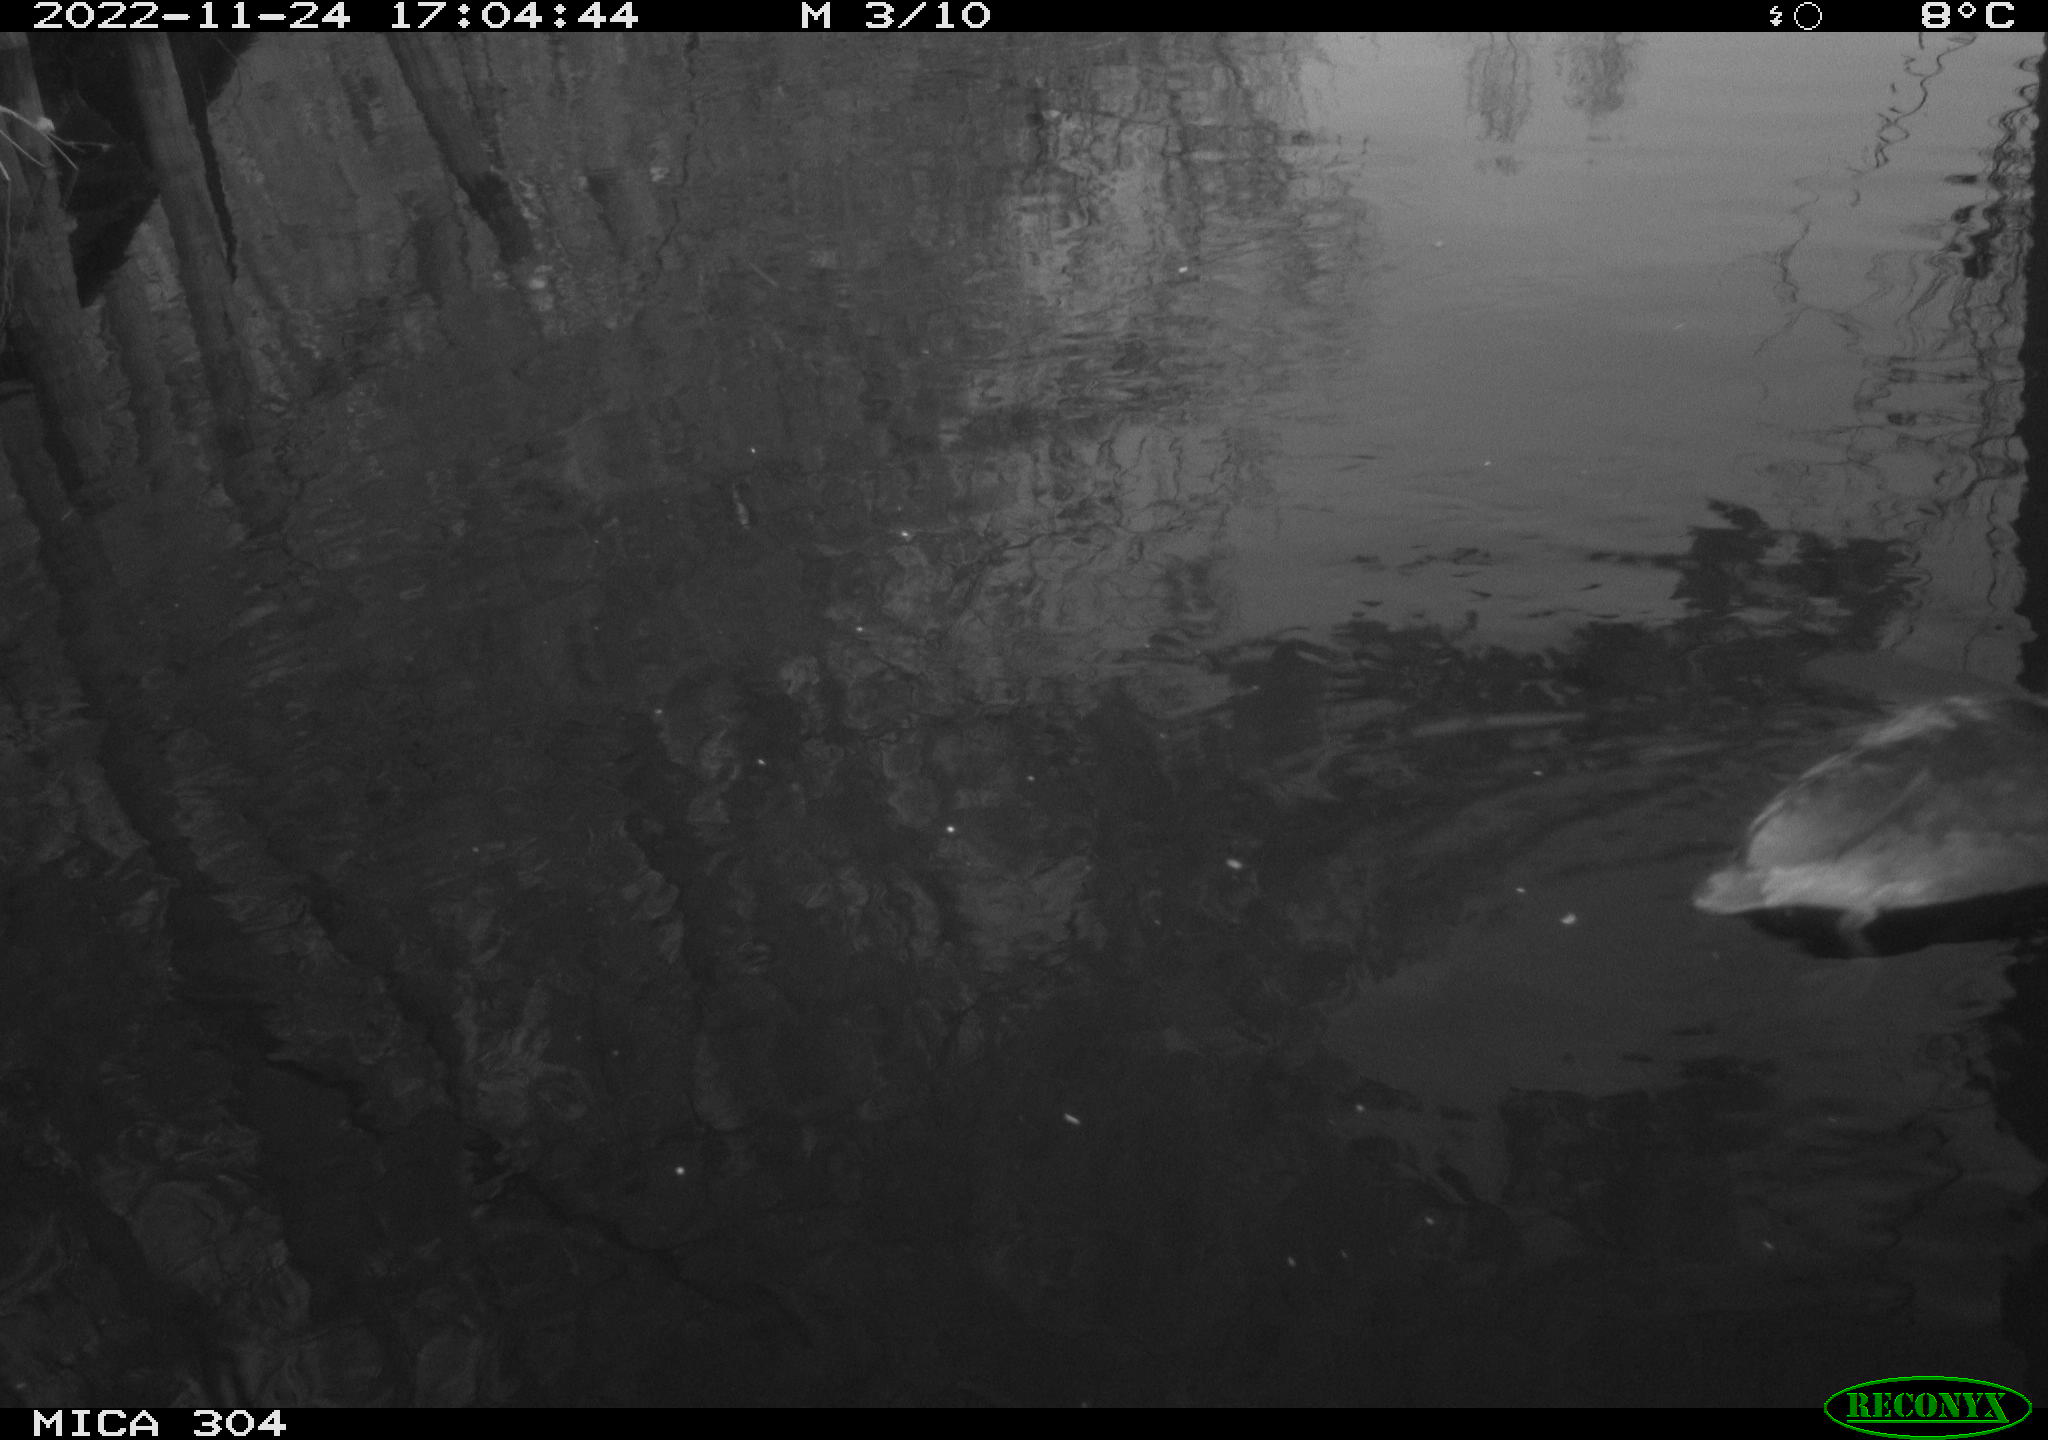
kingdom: Animalia
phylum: Chordata
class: Aves
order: Gruiformes
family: Rallidae
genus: Fulica
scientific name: Fulica atra
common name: Eurasian coot
